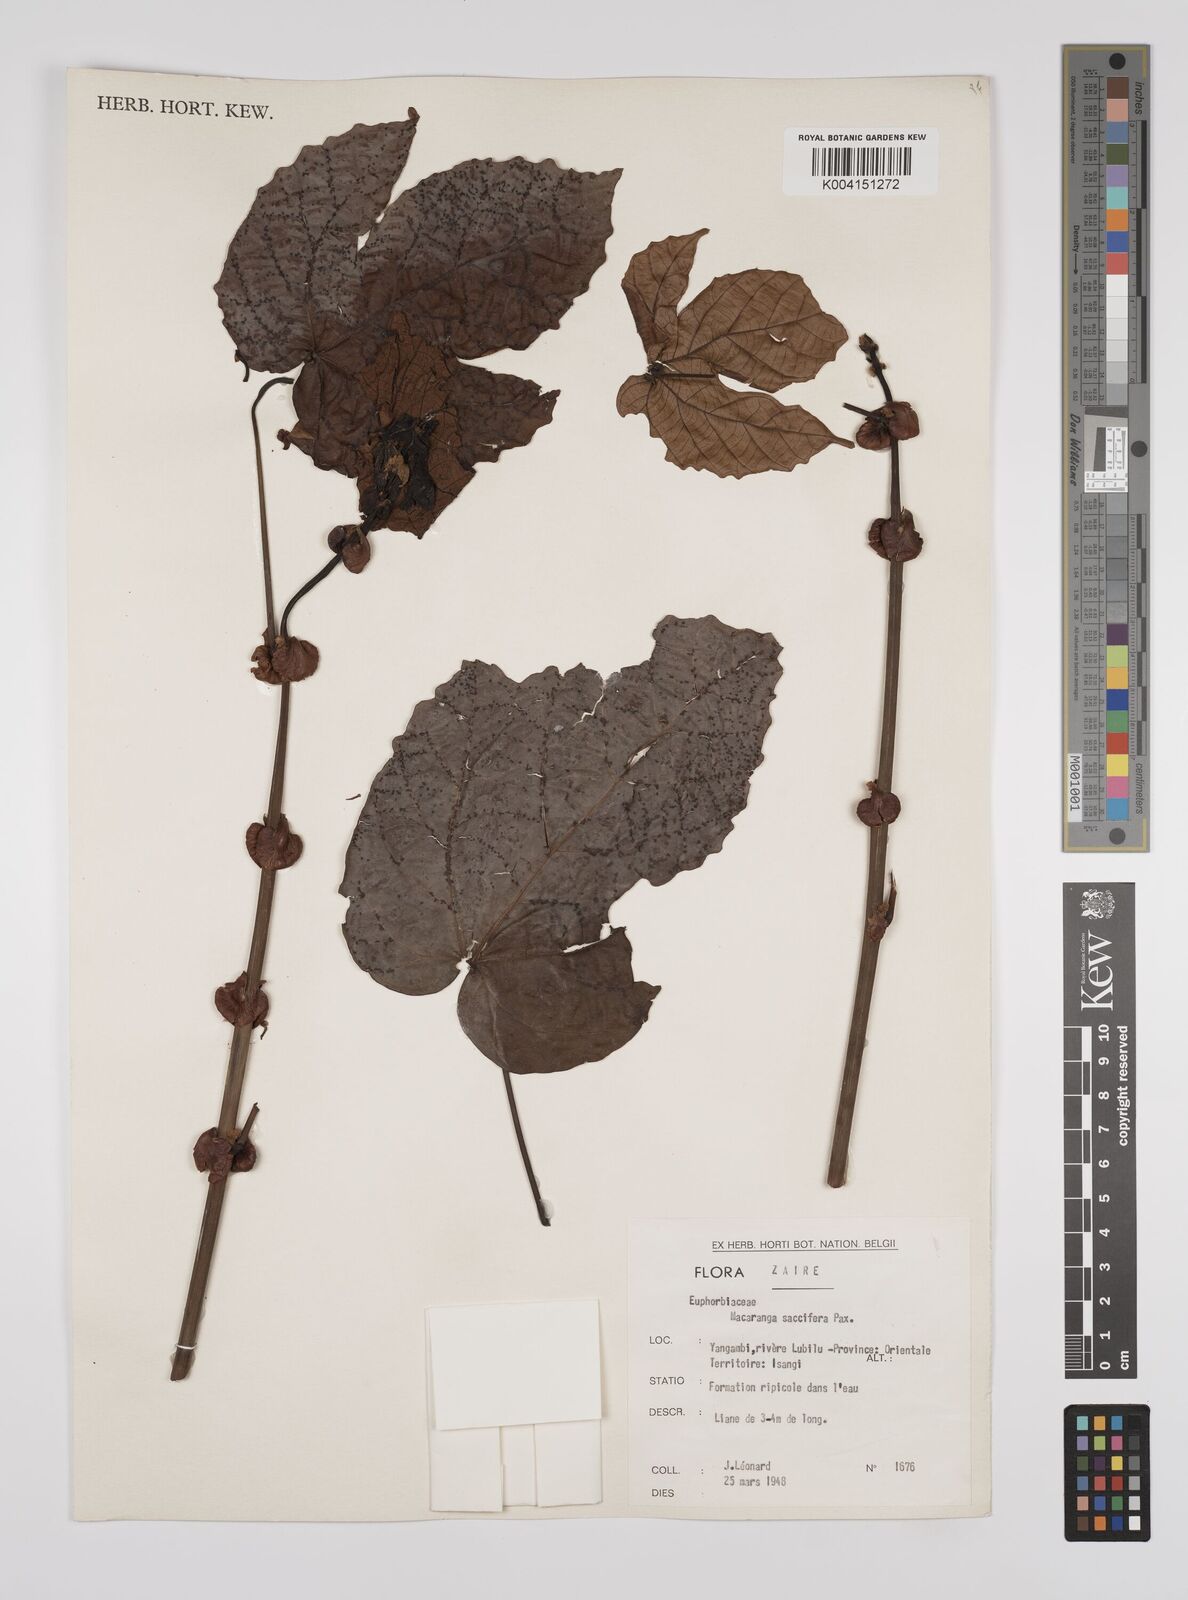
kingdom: Plantae
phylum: Tracheophyta
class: Magnoliopsida
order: Malpighiales
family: Euphorbiaceae
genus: Macaranga
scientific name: Macaranga saccifera
